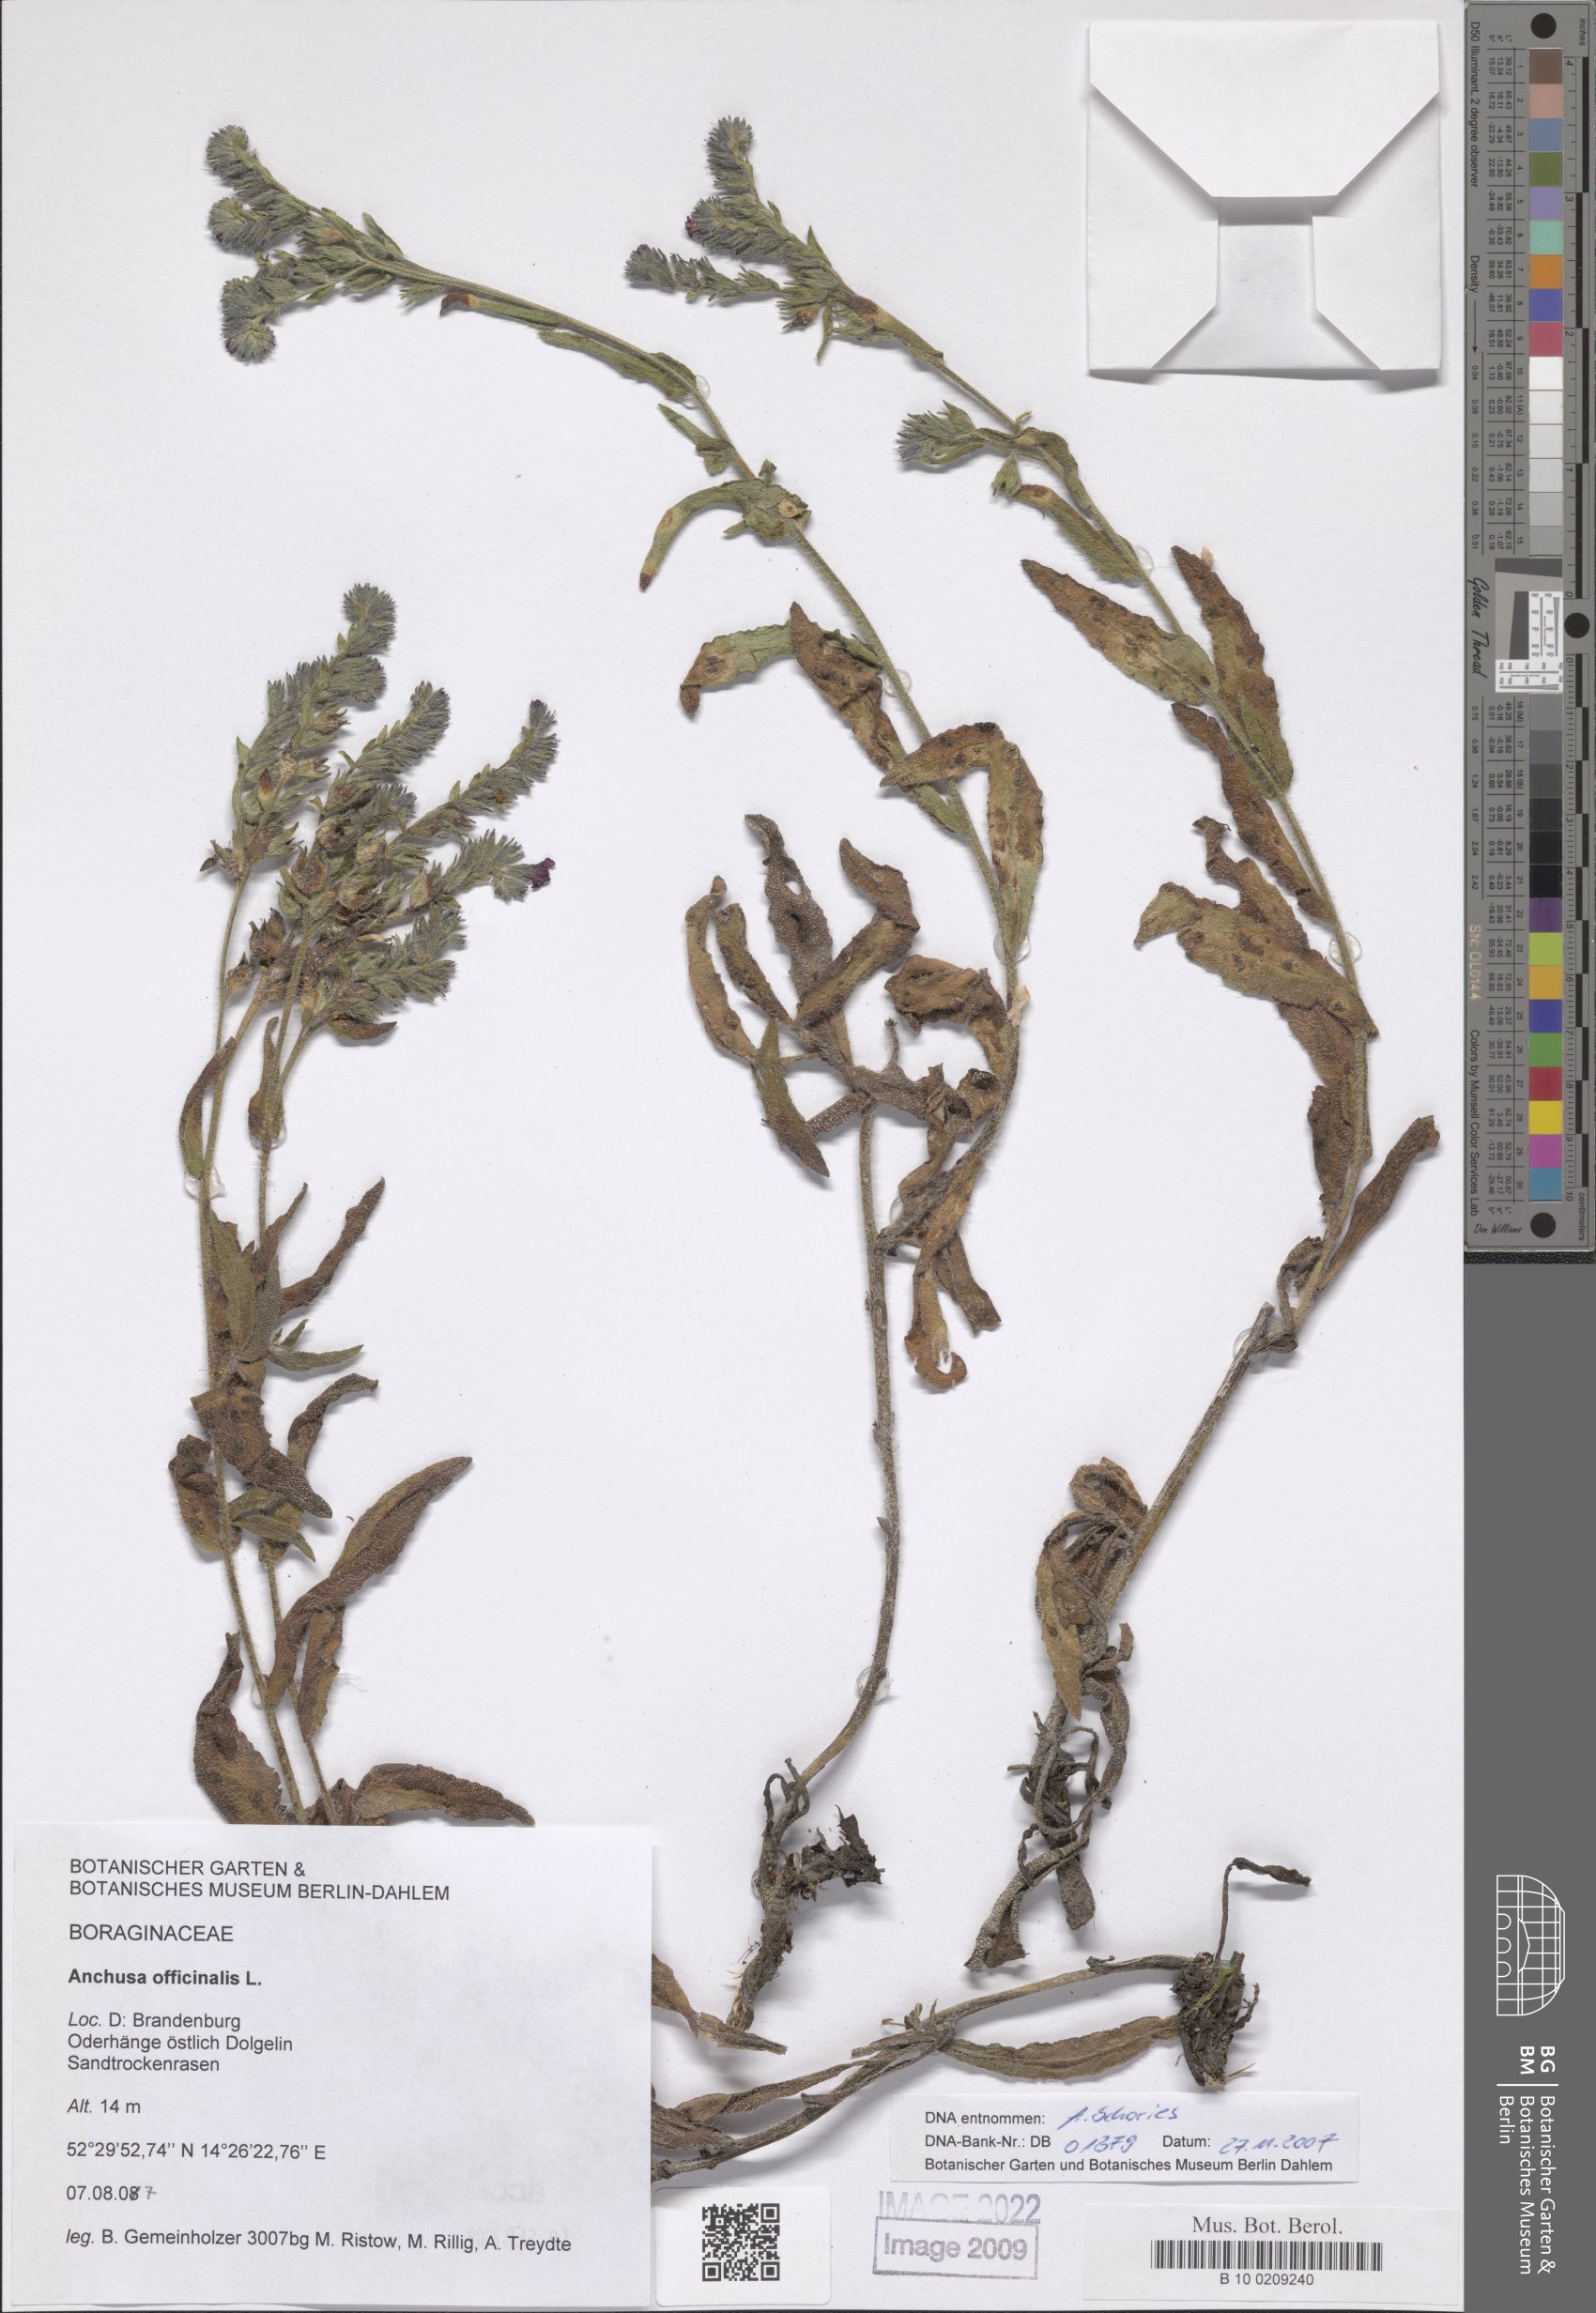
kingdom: Plantae
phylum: Tracheophyta
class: Magnoliopsida
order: Boraginales
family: Boraginaceae
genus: Anchusa
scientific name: Anchusa officinalis
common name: Alkanet
